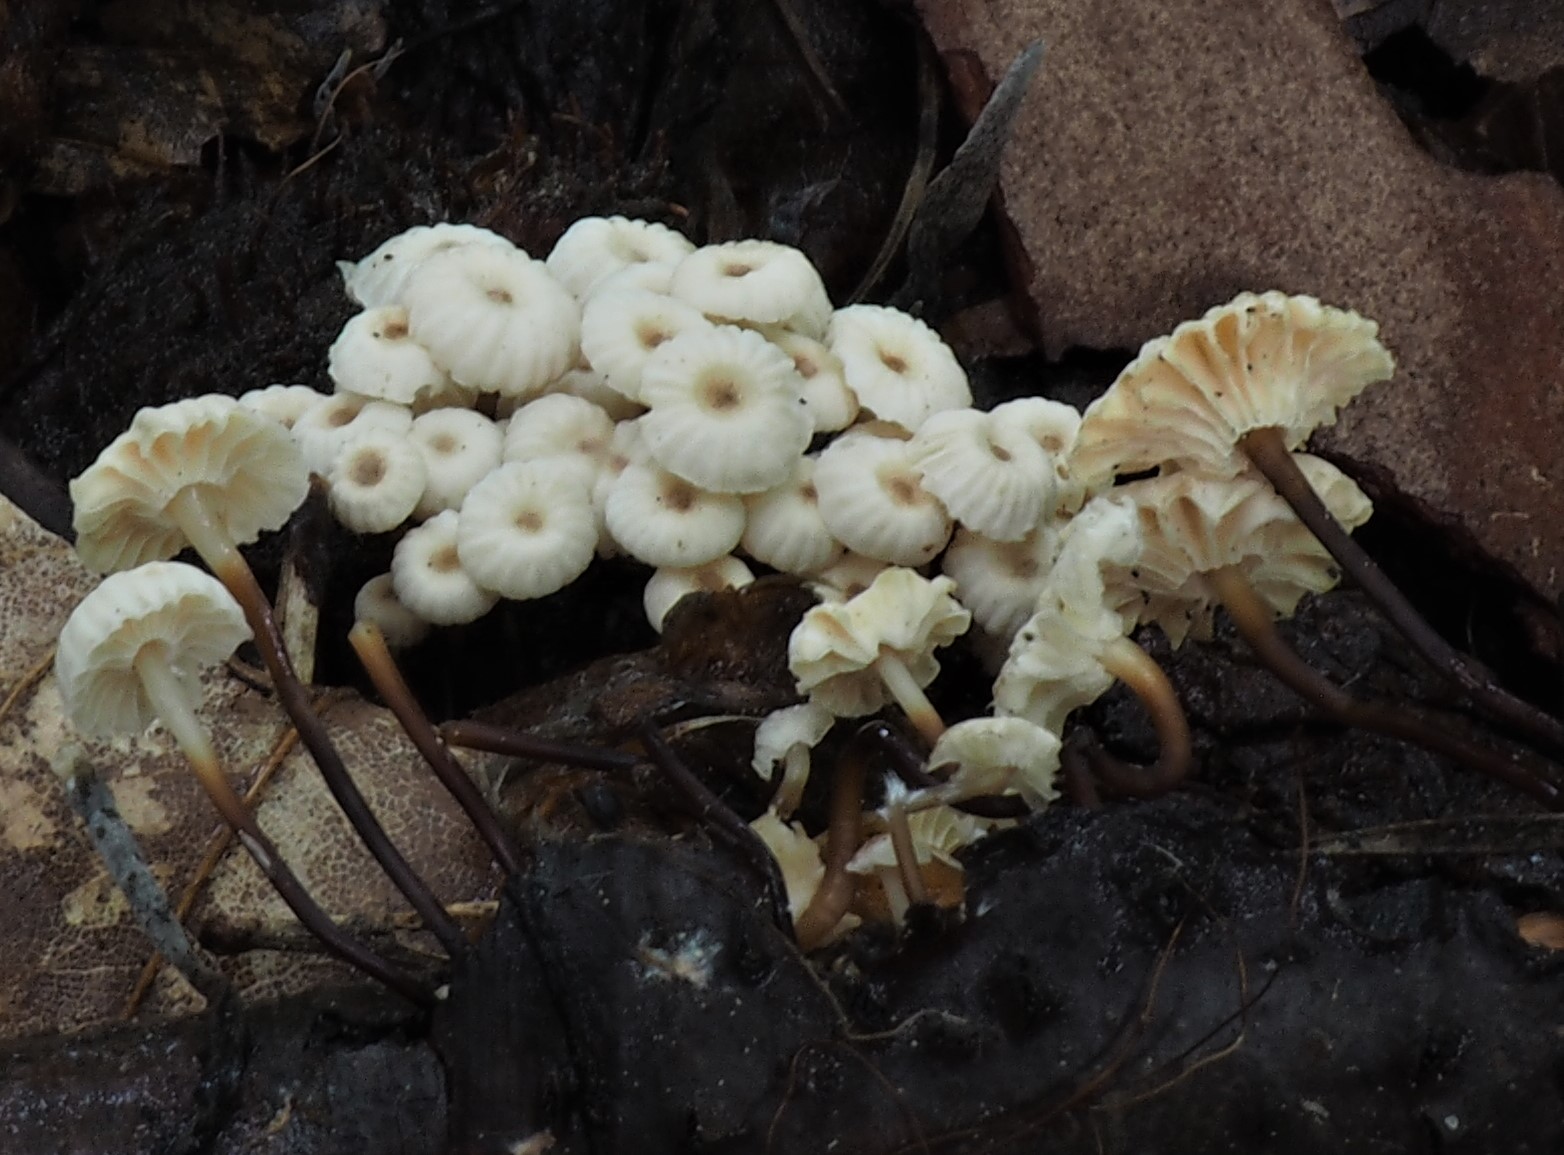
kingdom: Fungi
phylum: Basidiomycota
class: Agaricomycetes
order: Agaricales
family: Marasmiaceae
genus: Marasmius
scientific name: Marasmius rotula
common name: hjul-bruskhat
